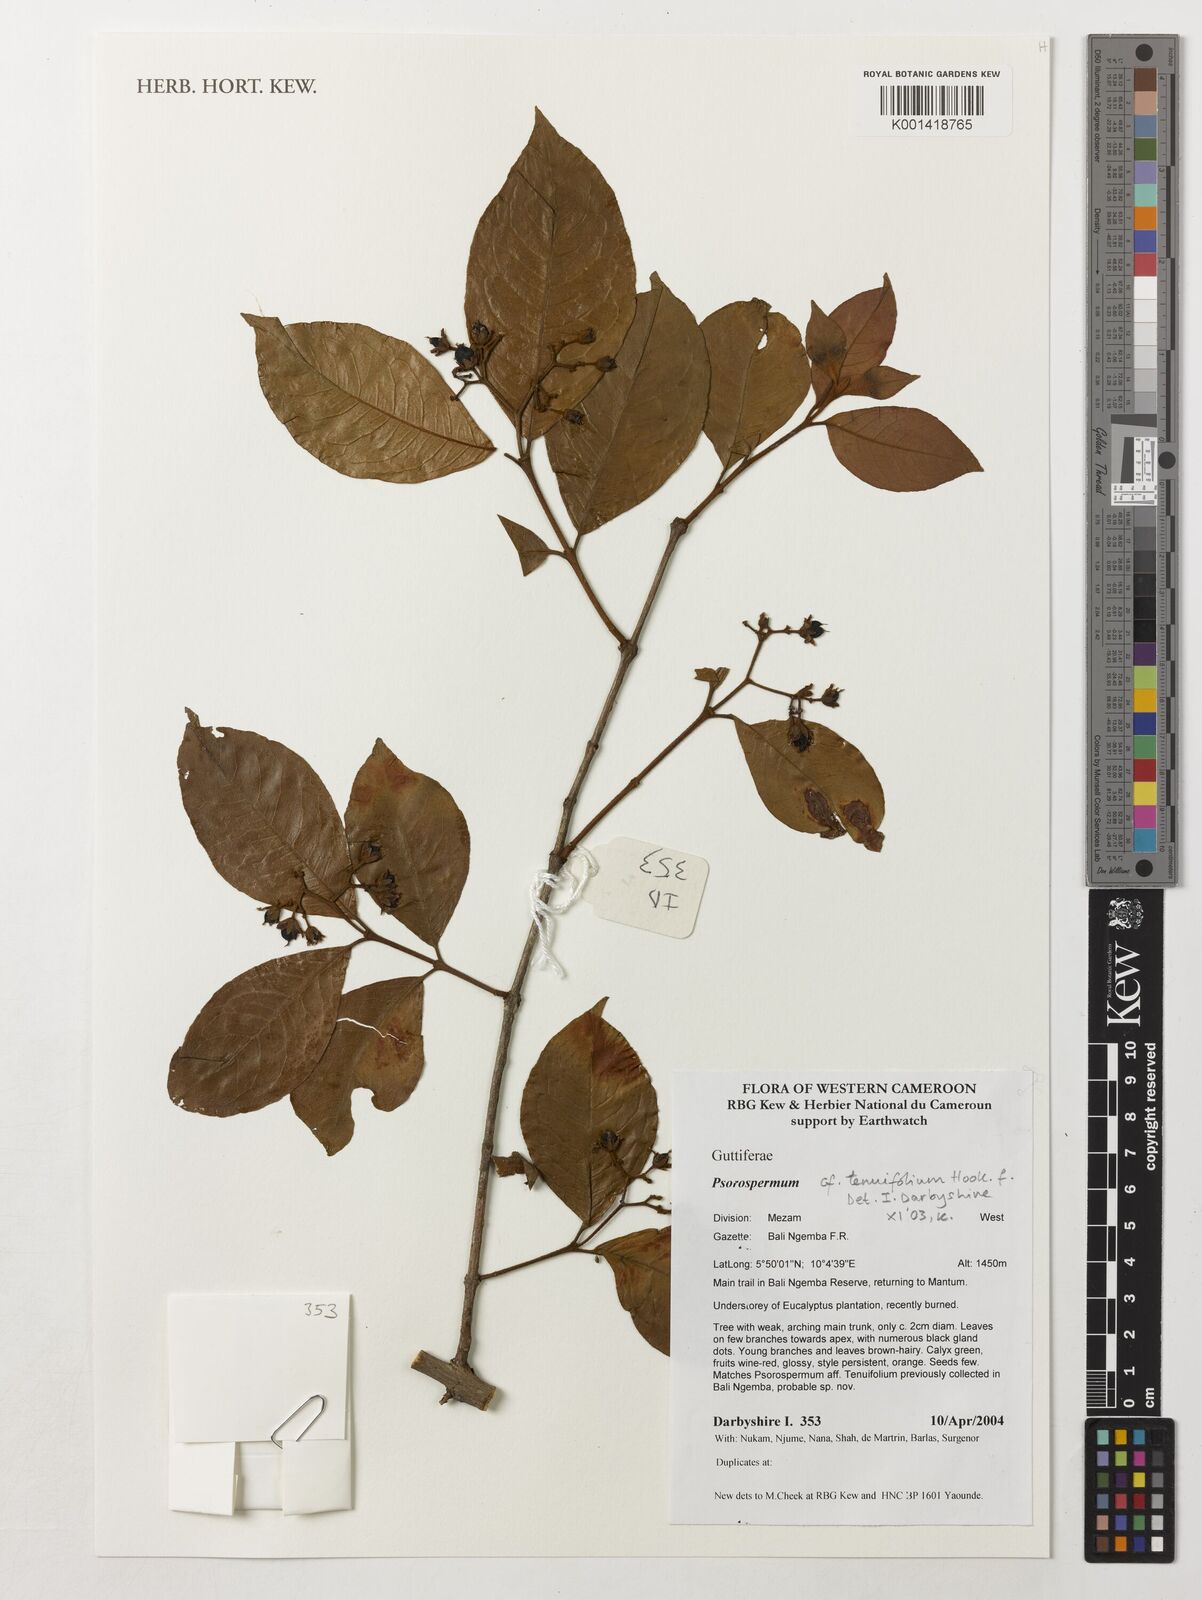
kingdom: Plantae
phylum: Tracheophyta
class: Magnoliopsida
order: Malpighiales
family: Hypericaceae
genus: Psorospermum
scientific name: Psorospermum tenuifolium
